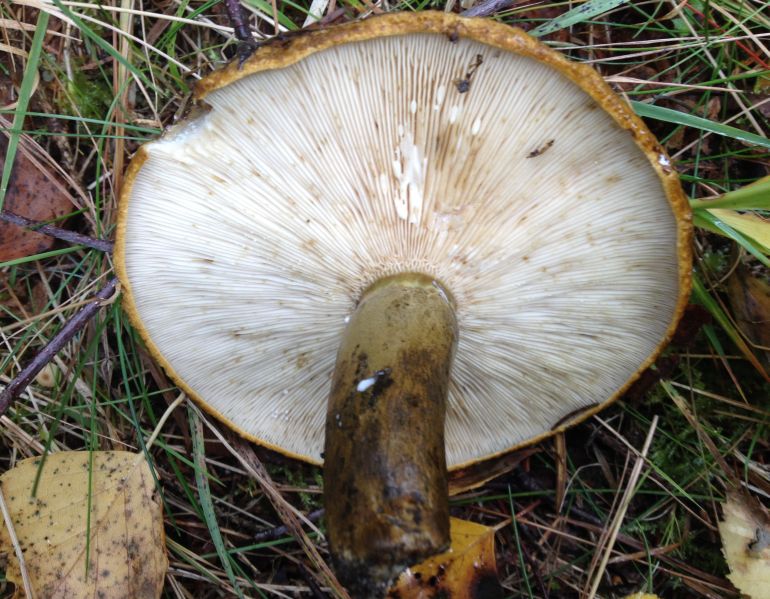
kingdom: Fungi
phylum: Basidiomycota
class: Agaricomycetes
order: Russulales
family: Russulaceae
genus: Lactarius
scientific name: Lactarius necator
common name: manddraber-mælkehat
